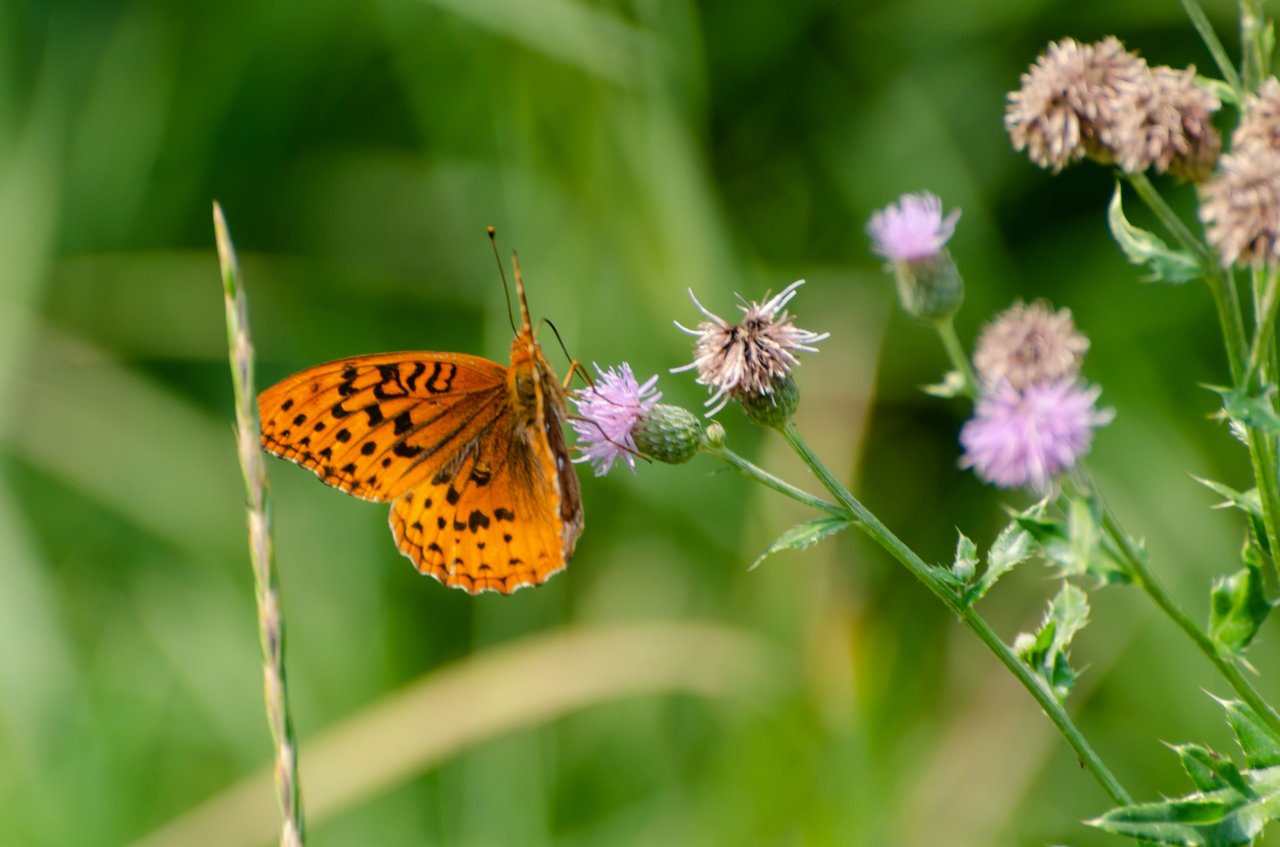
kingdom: Animalia
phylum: Arthropoda
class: Insecta
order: Lepidoptera
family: Nymphalidae
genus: Speyeria
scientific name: Speyeria cybele
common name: Great Spangled Fritillary
